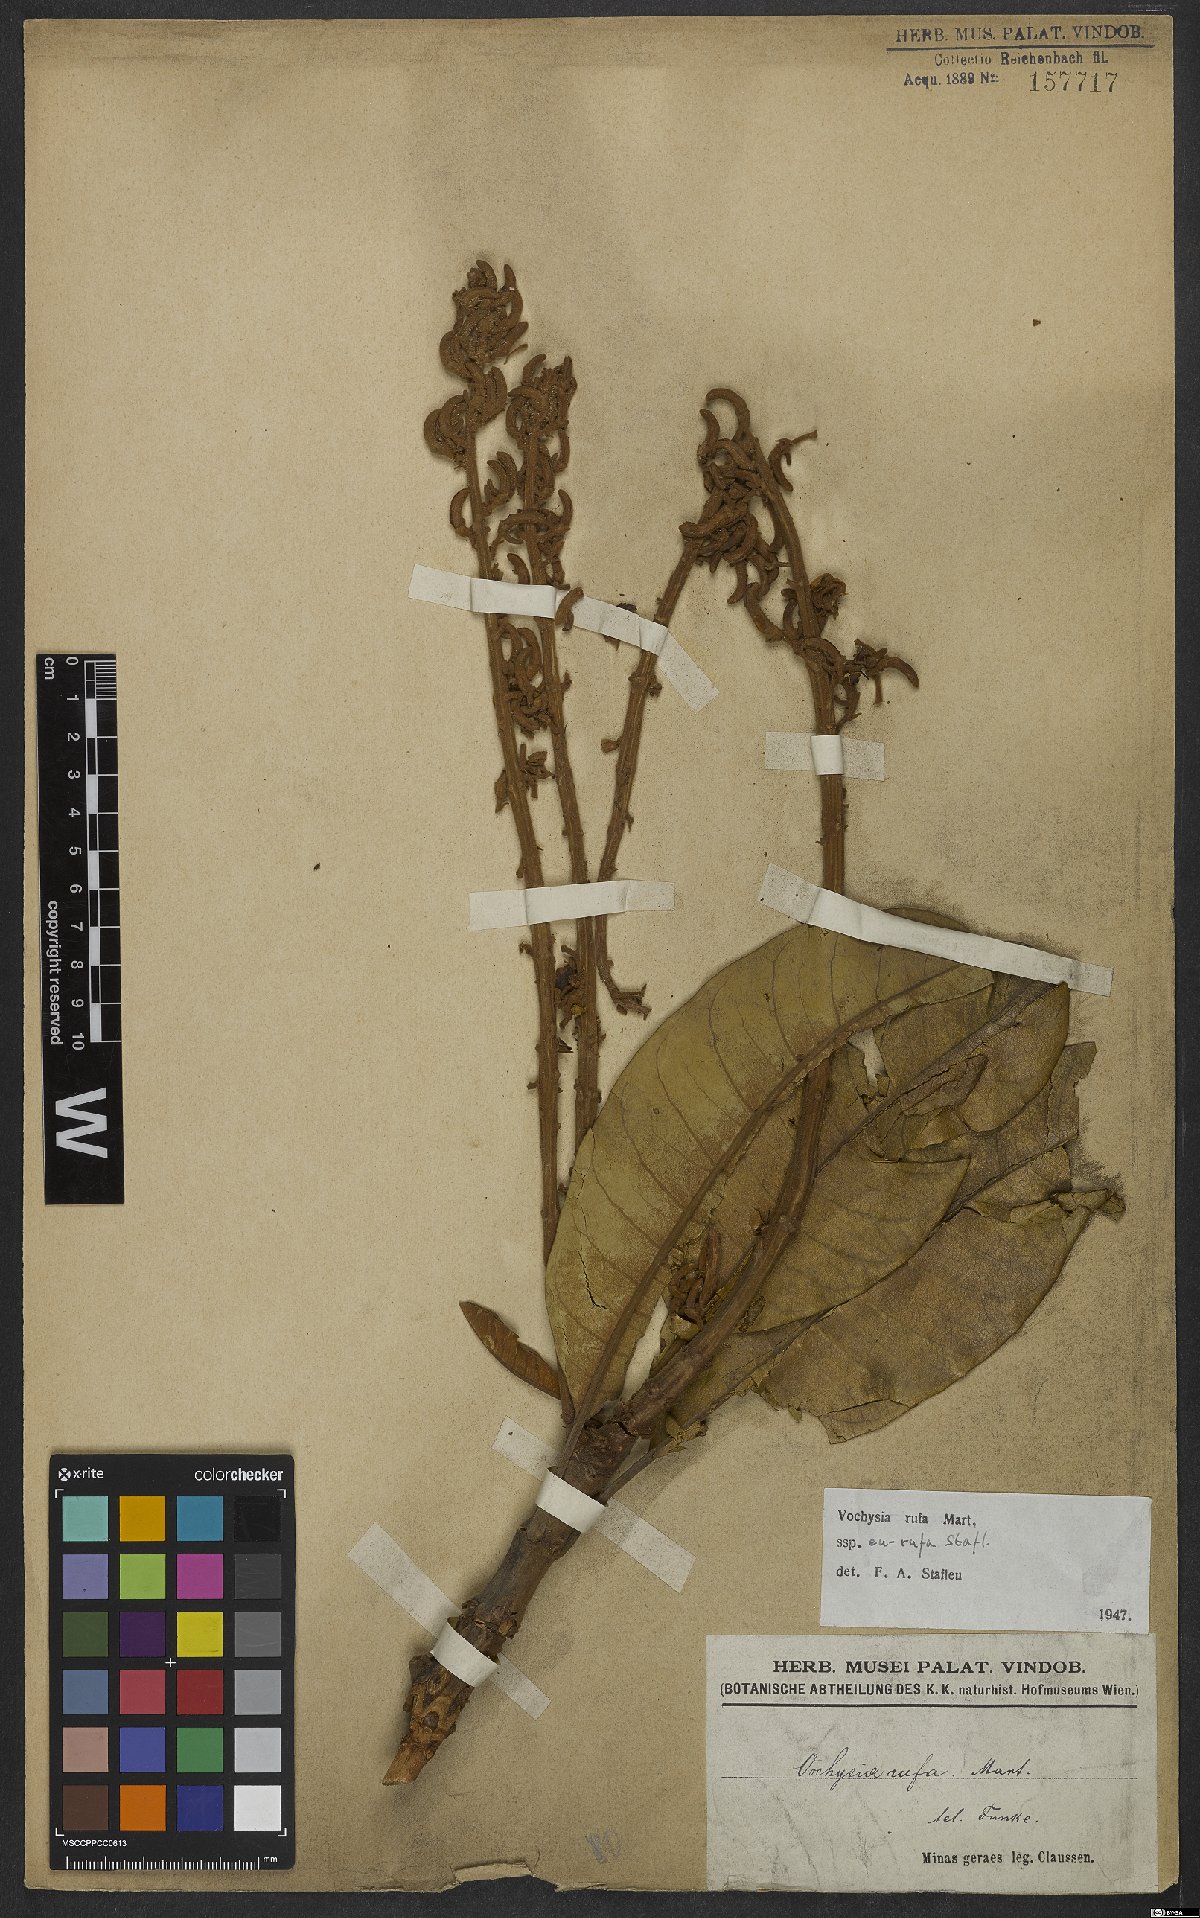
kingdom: Plantae
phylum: Tracheophyta
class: Magnoliopsida
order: Myrtales
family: Vochysiaceae
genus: Vochysia
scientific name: Vochysia rufa
